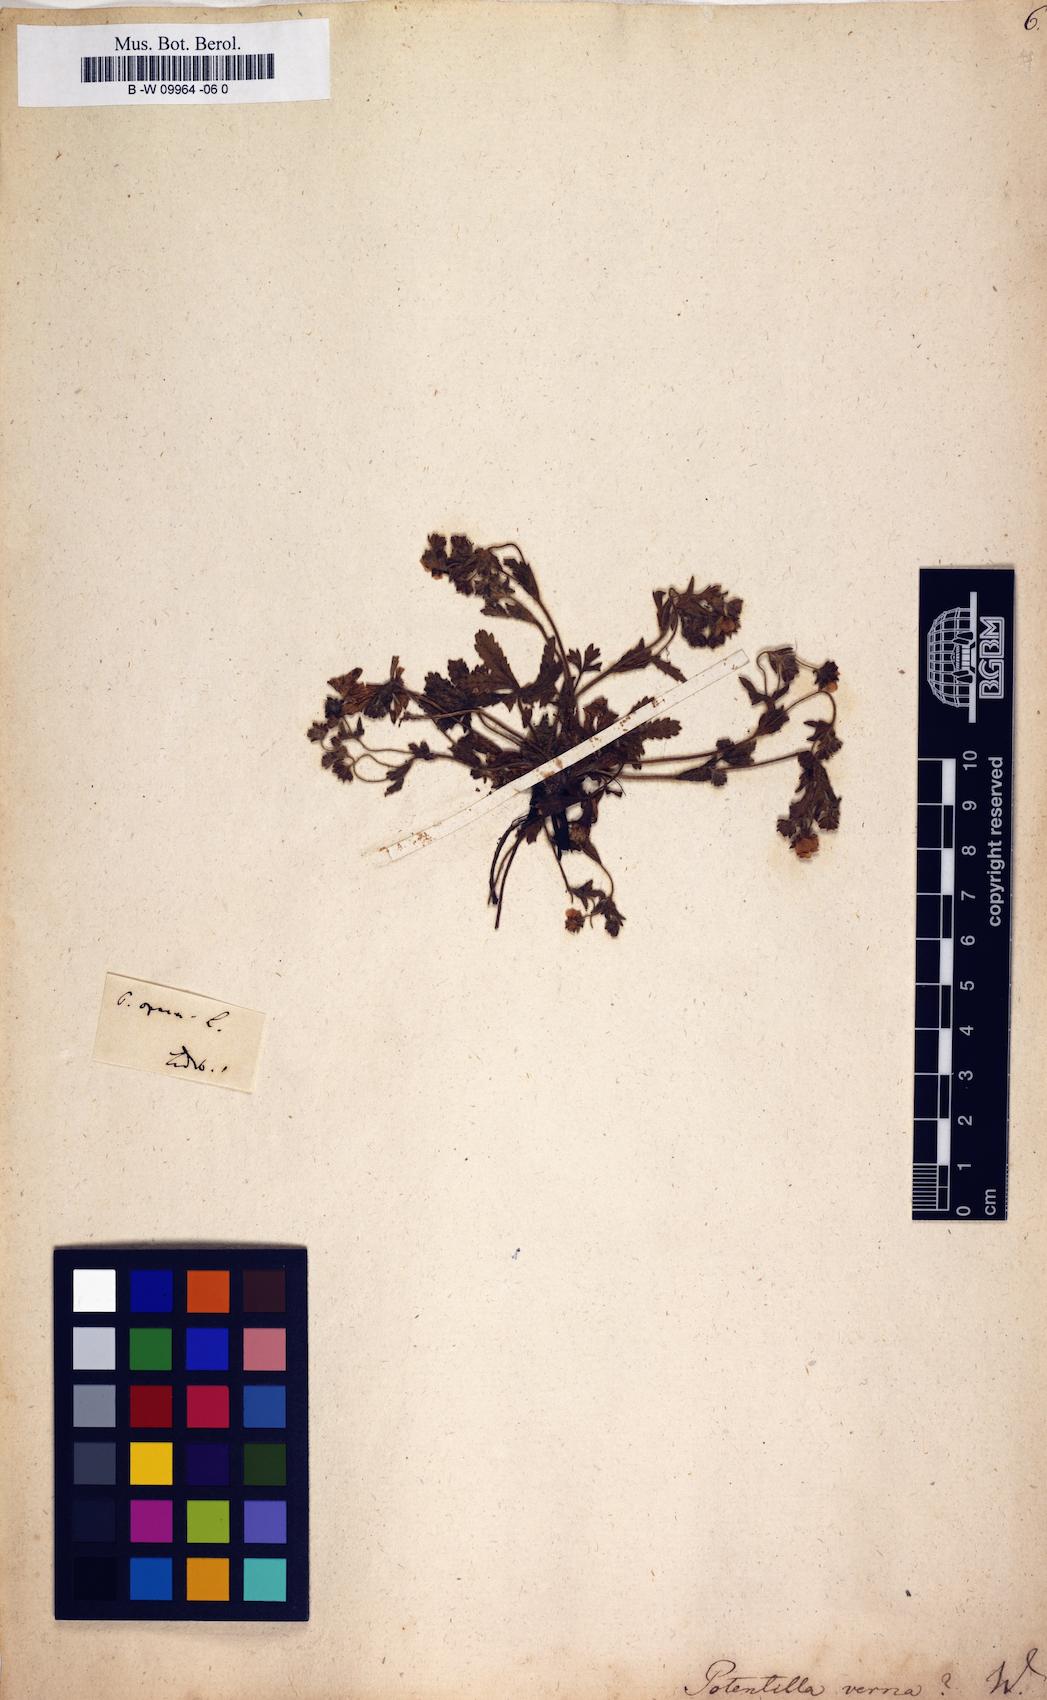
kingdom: Plantae
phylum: Tracheophyta
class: Magnoliopsida
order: Rosales
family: Rosaceae
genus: Potentilla
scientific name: Potentilla verna
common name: Spring cinquefoil
